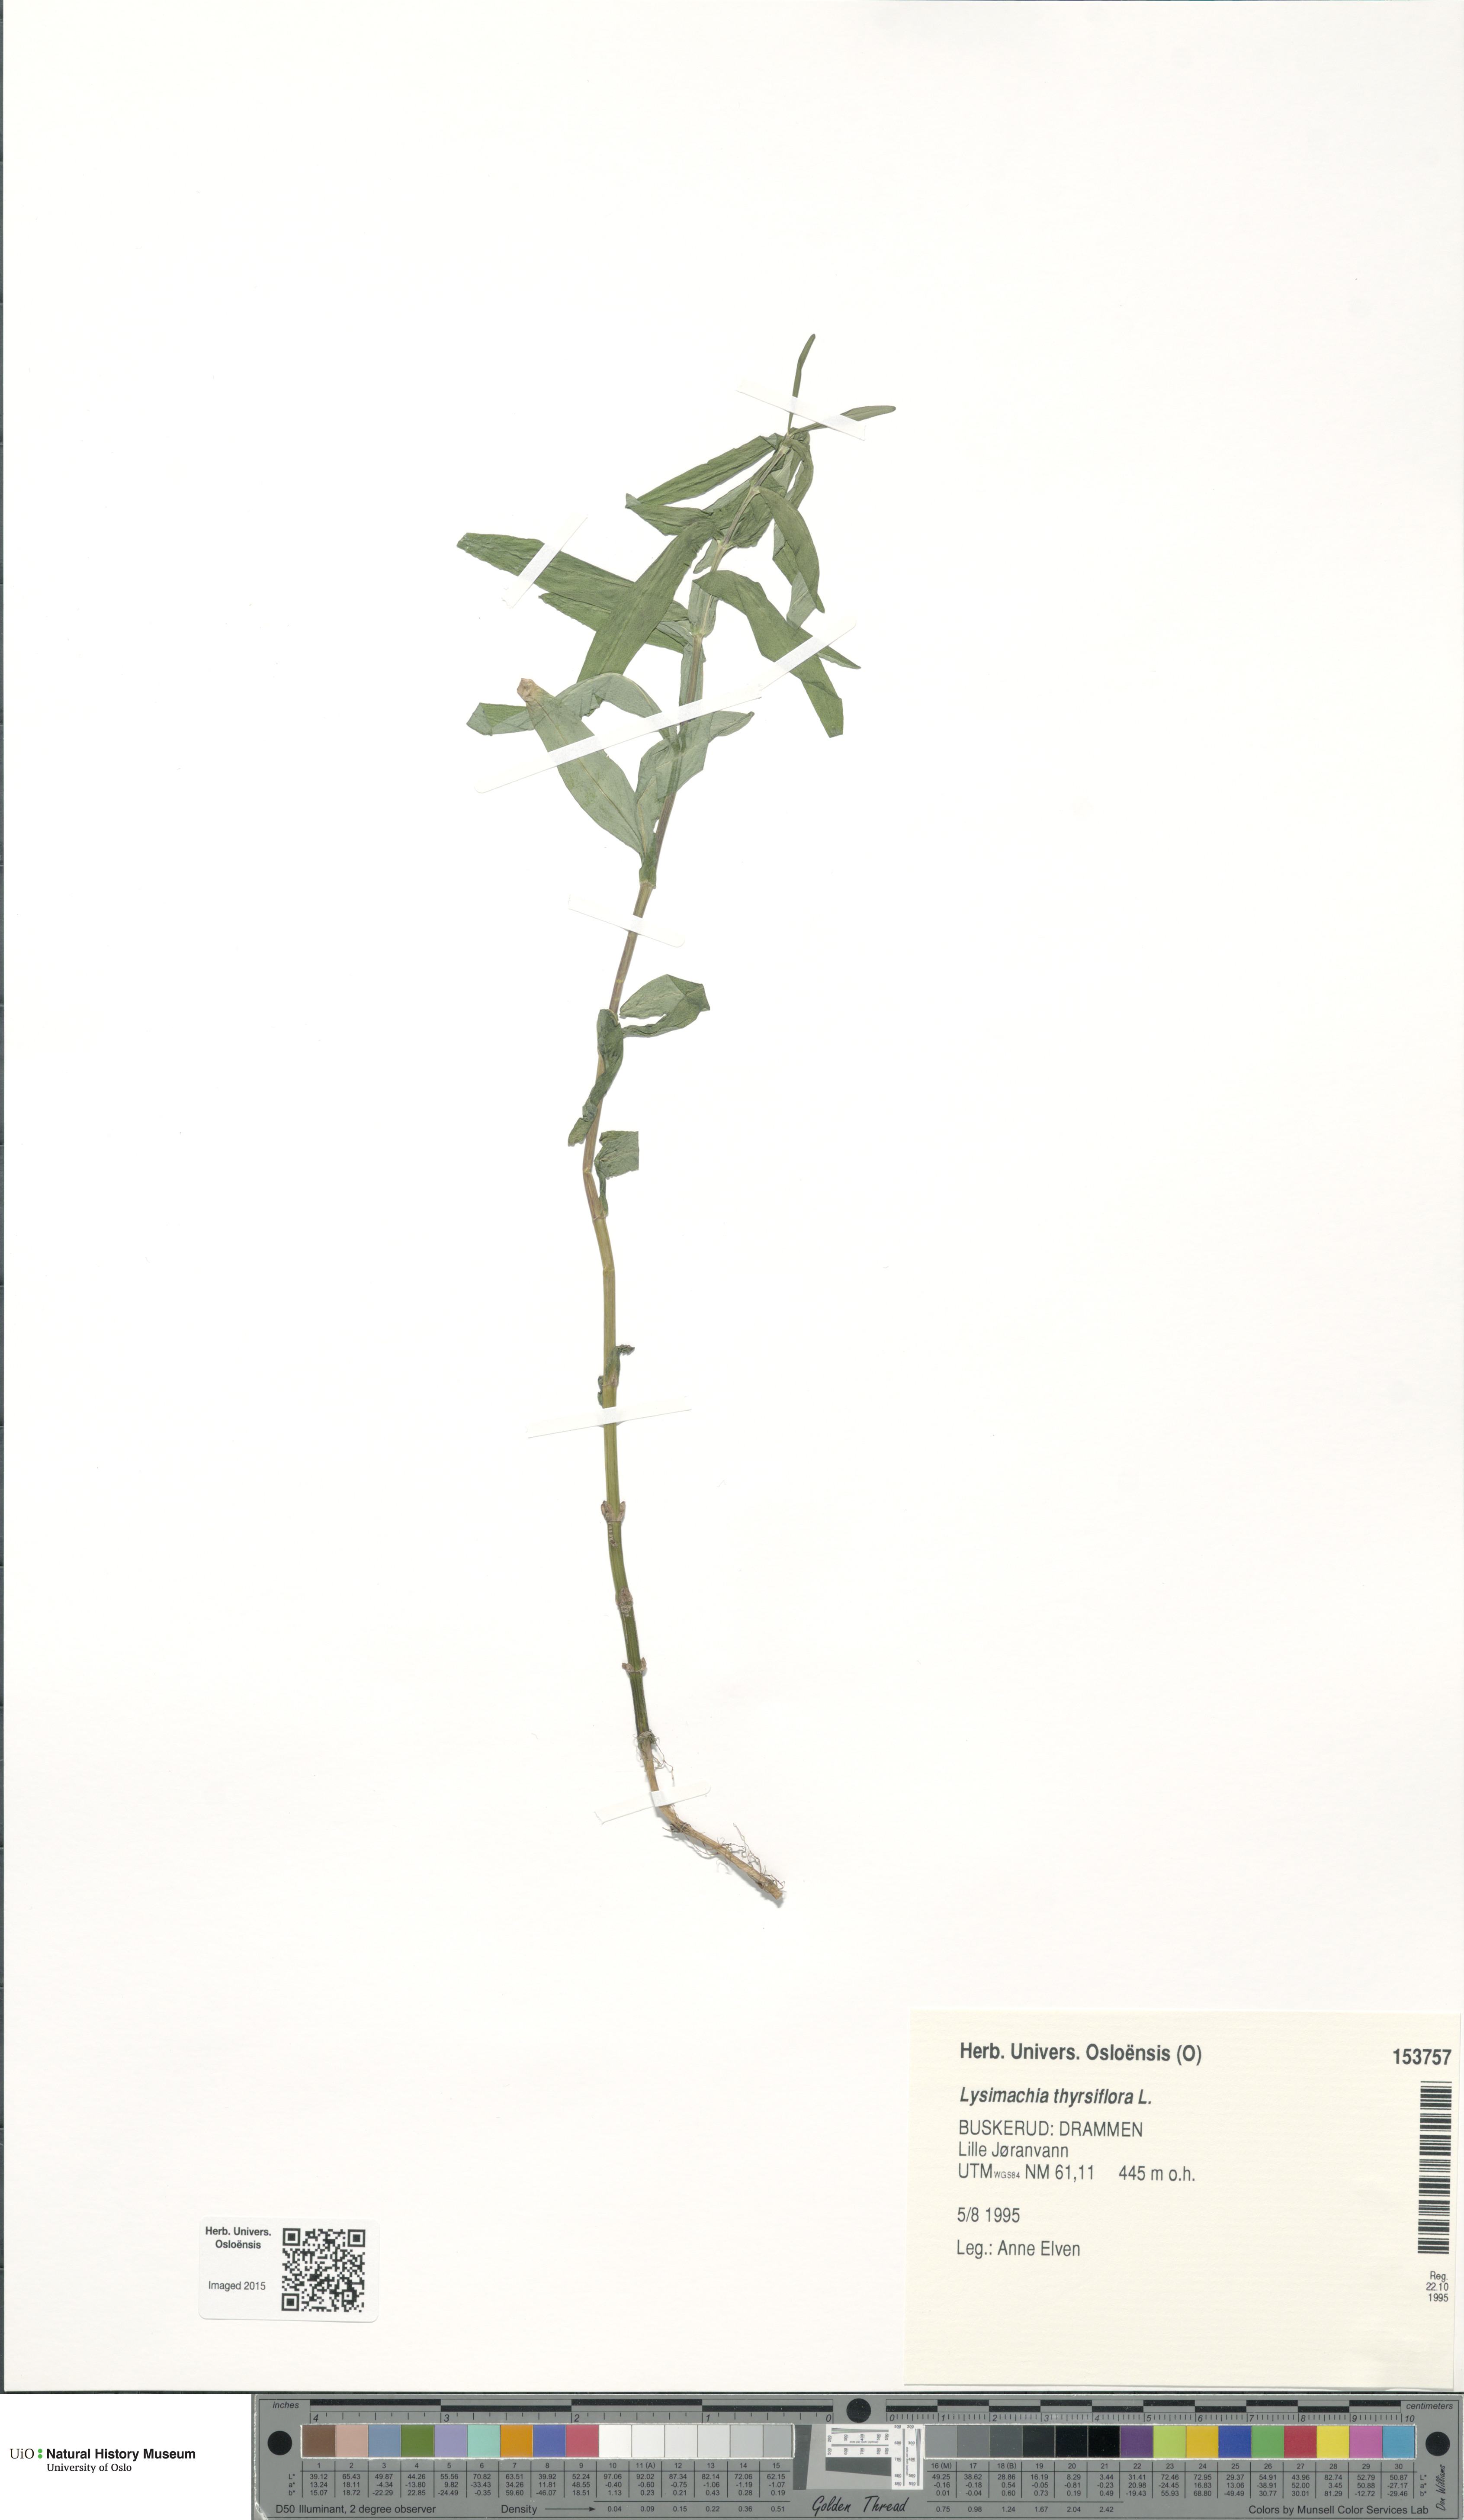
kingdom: Plantae
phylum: Tracheophyta
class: Magnoliopsida
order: Ericales
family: Primulaceae
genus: Lysimachia
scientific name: Lysimachia thyrsiflora
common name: Tufted loosestrife
